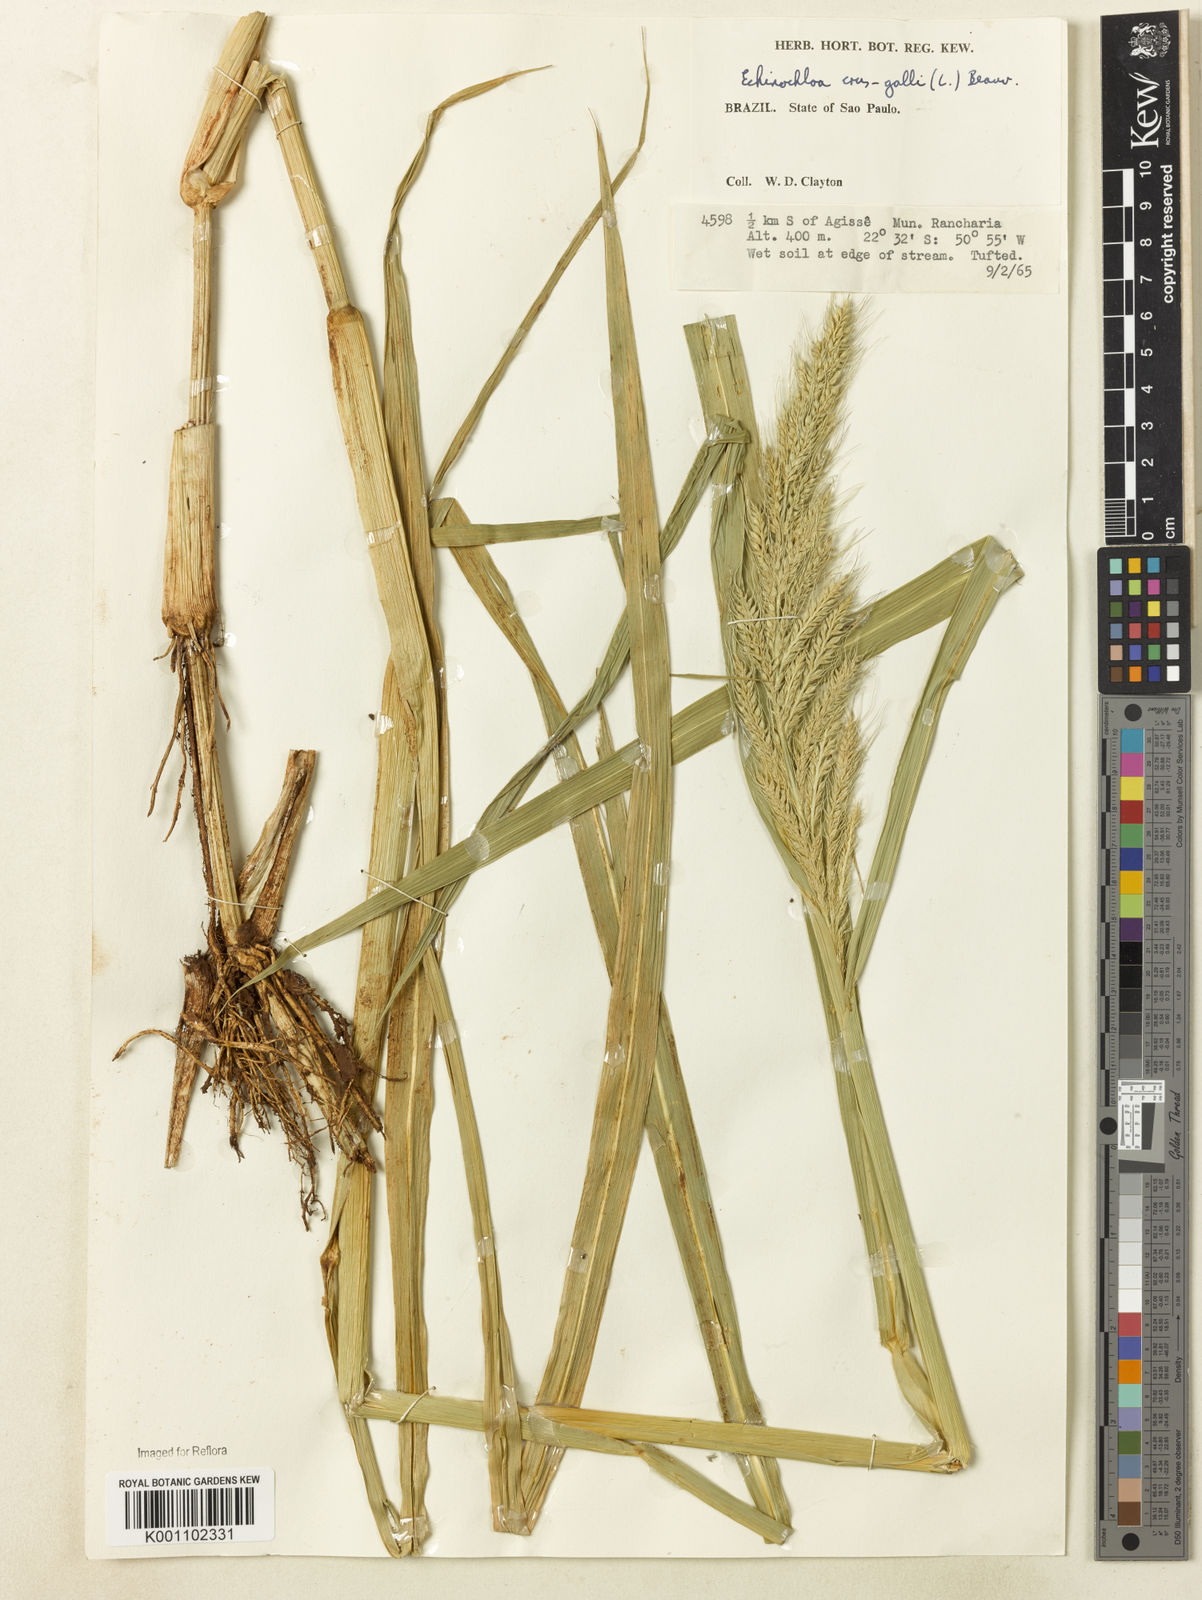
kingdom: Plantae
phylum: Tracheophyta
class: Liliopsida
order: Poales
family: Poaceae
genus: Echinochloa
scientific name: Echinochloa walteri
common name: Coast barnyard grass
